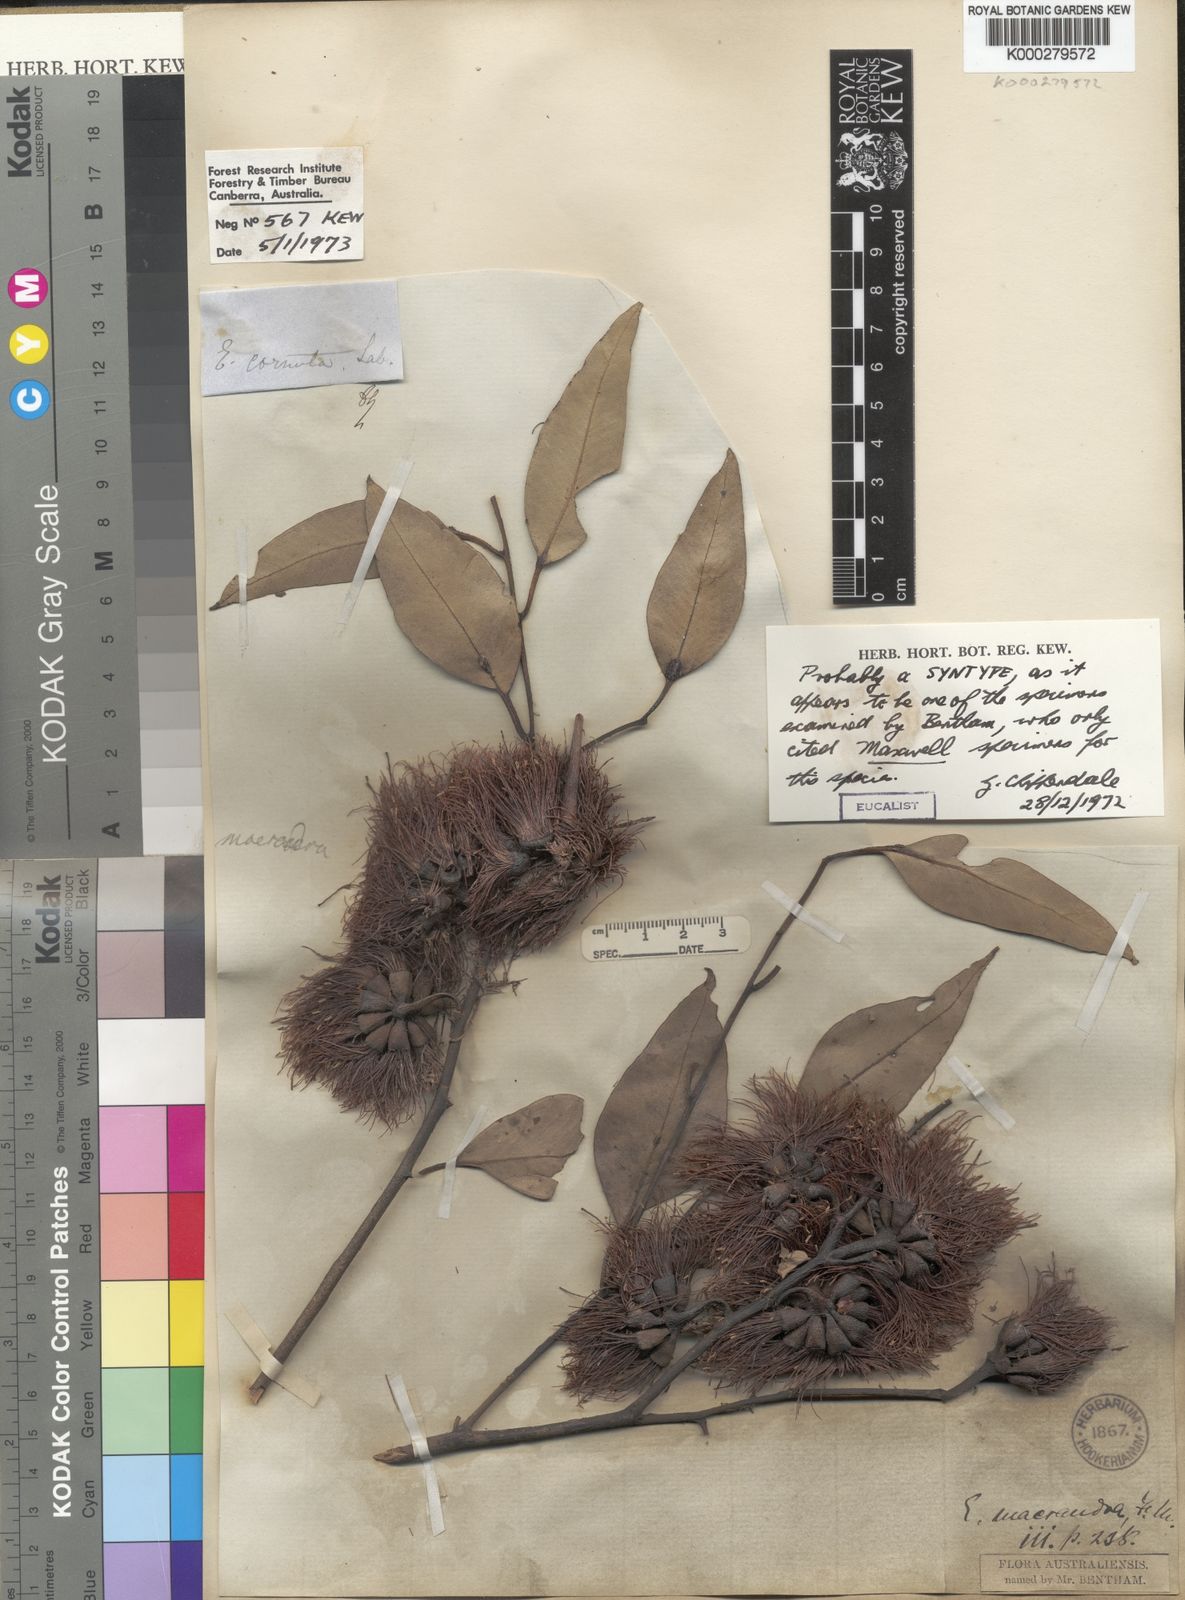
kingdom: Plantae
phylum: Tracheophyta
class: Magnoliopsida
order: Myrtales
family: Myrtaceae
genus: Eucalyptus
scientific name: Eucalyptus macrandra
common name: Longleaf marlock
